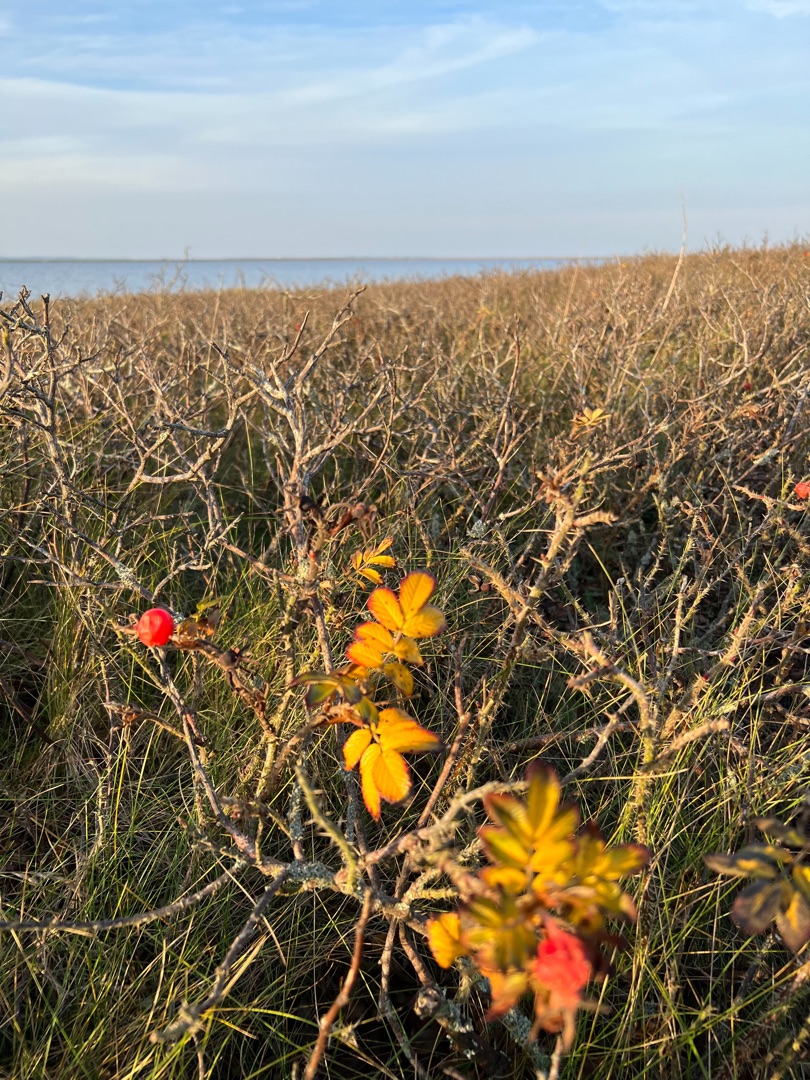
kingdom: Plantae
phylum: Tracheophyta
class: Magnoliopsida
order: Rosales
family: Rosaceae
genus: Rosa
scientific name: Rosa rugosa
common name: Rynket rose
